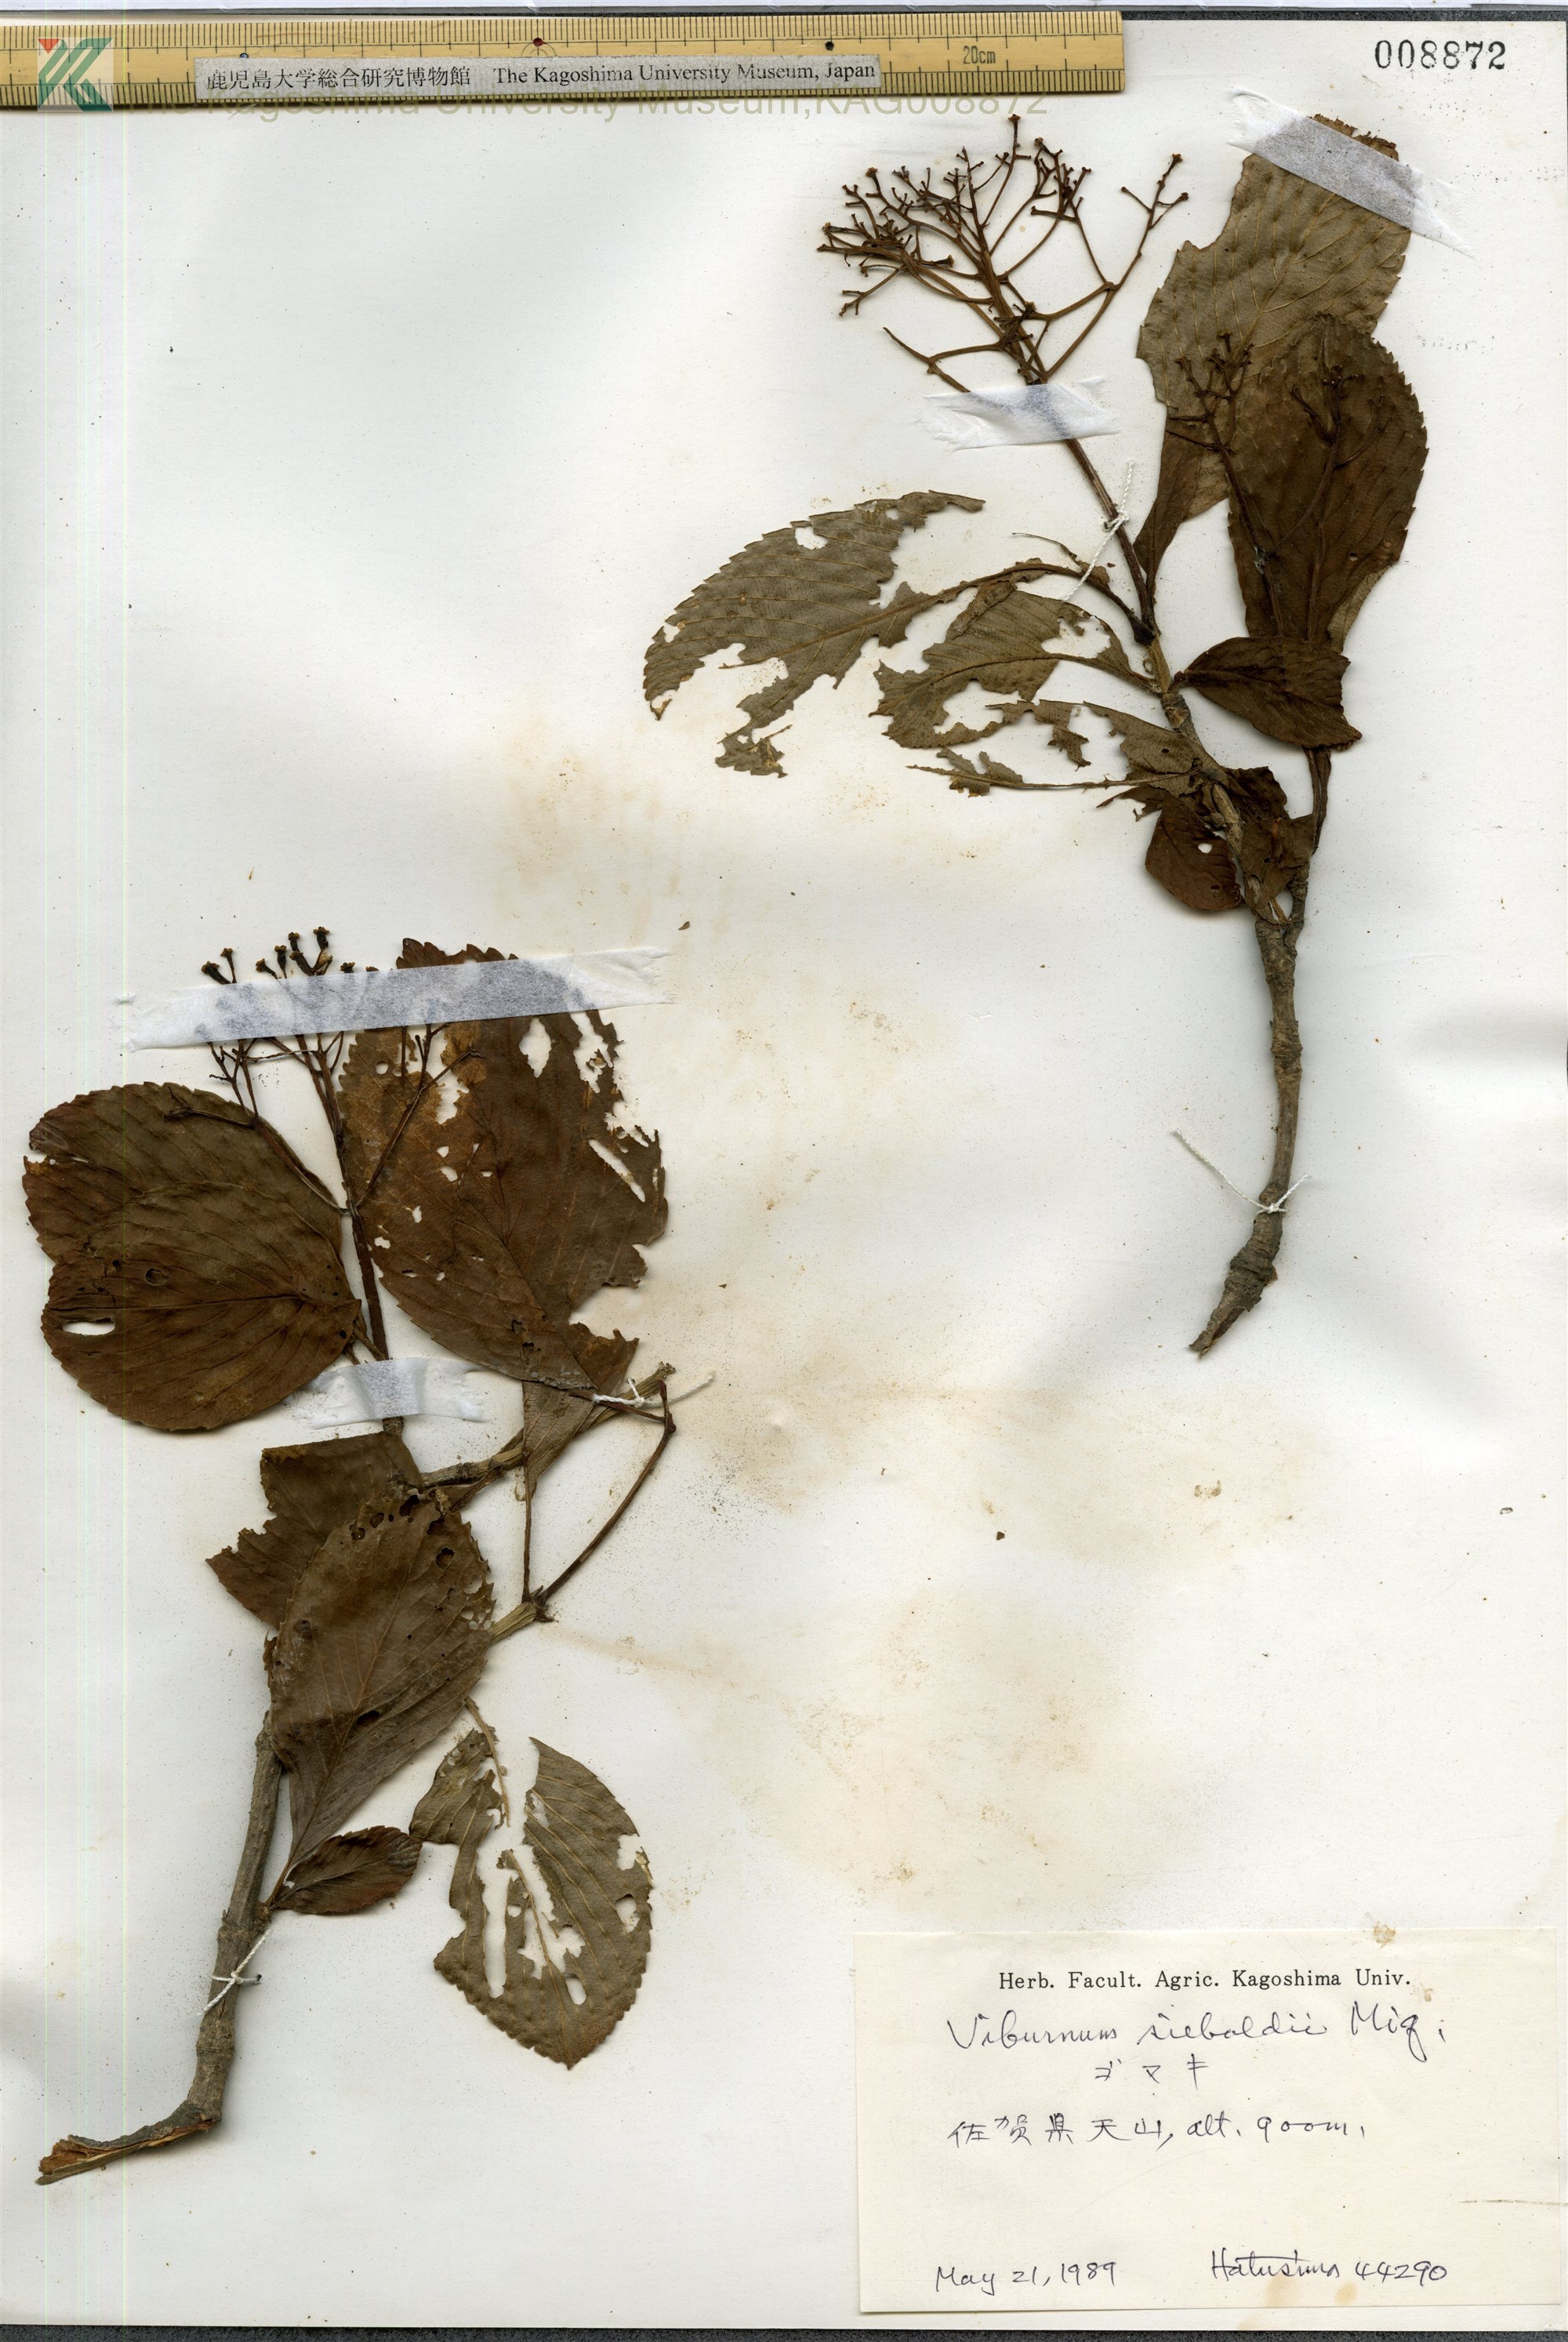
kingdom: Plantae
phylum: Tracheophyta
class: Magnoliopsida
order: Dipsacales
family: Viburnaceae
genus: Viburnum
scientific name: Viburnum sieboldii
